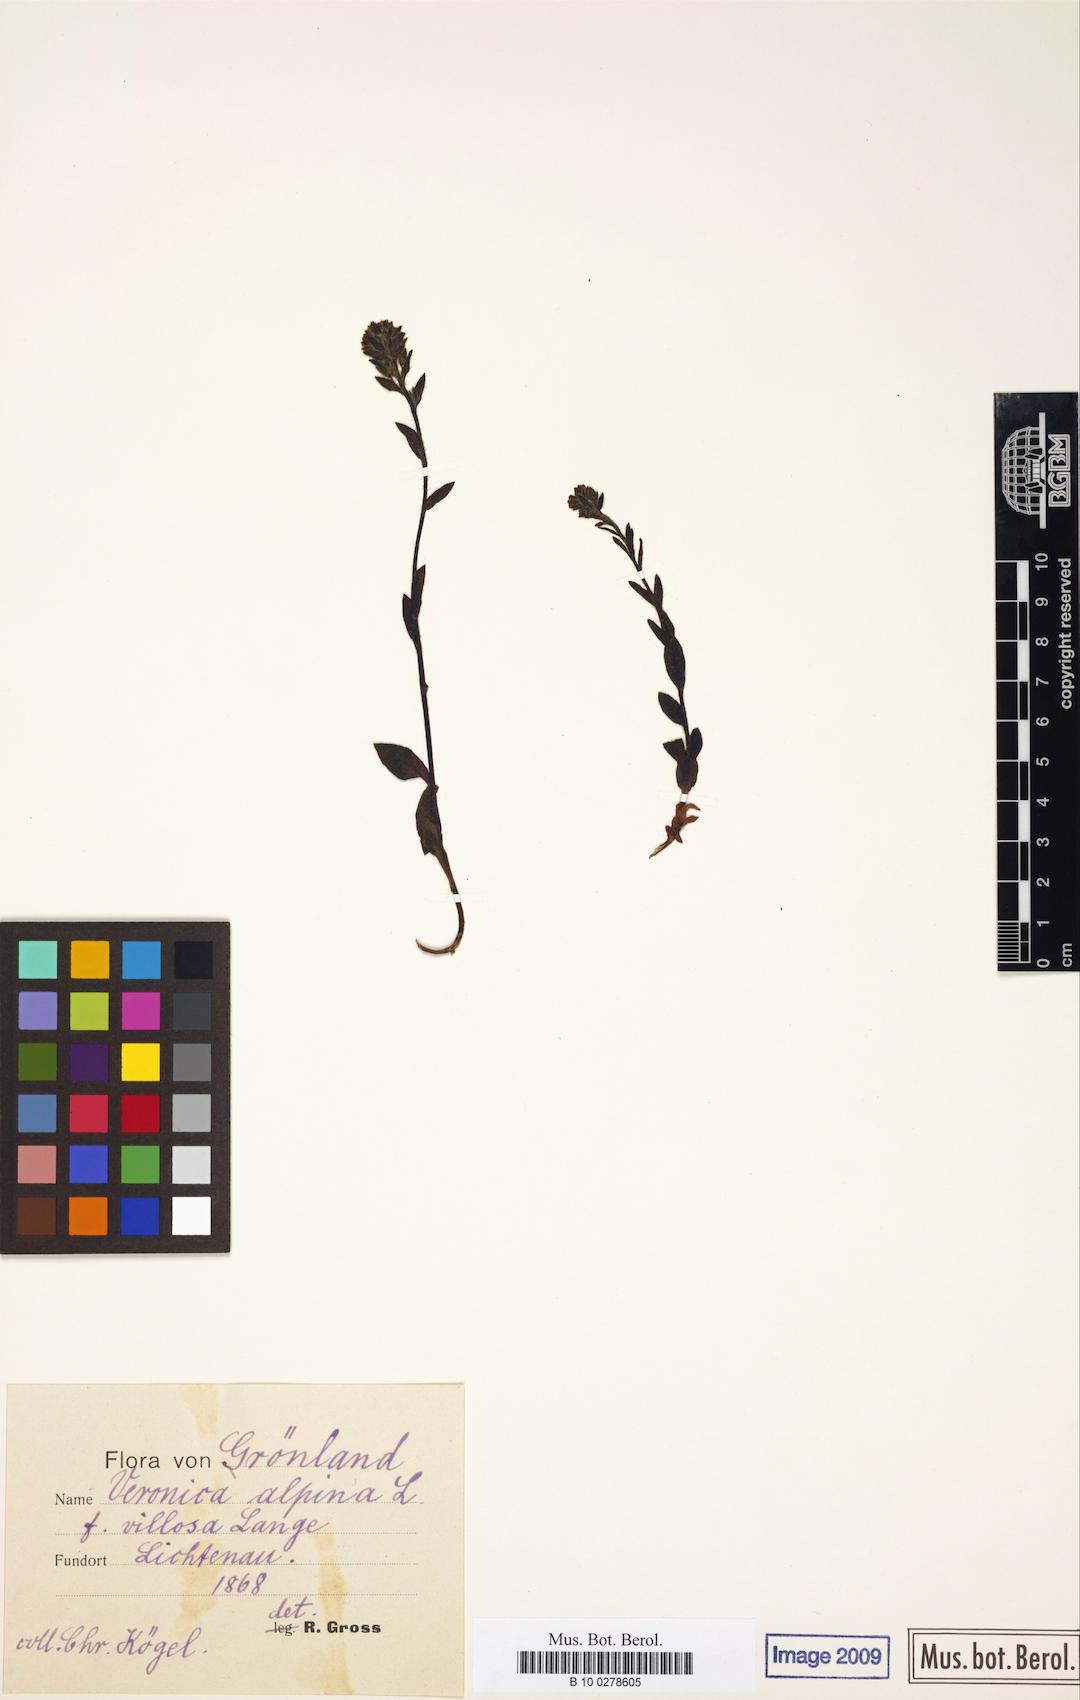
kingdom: Plantae
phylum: Tracheophyta
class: Magnoliopsida
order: Lamiales
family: Plantaginaceae
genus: Veronica
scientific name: Veronica wormskjoldii
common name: American alpine speedwell
